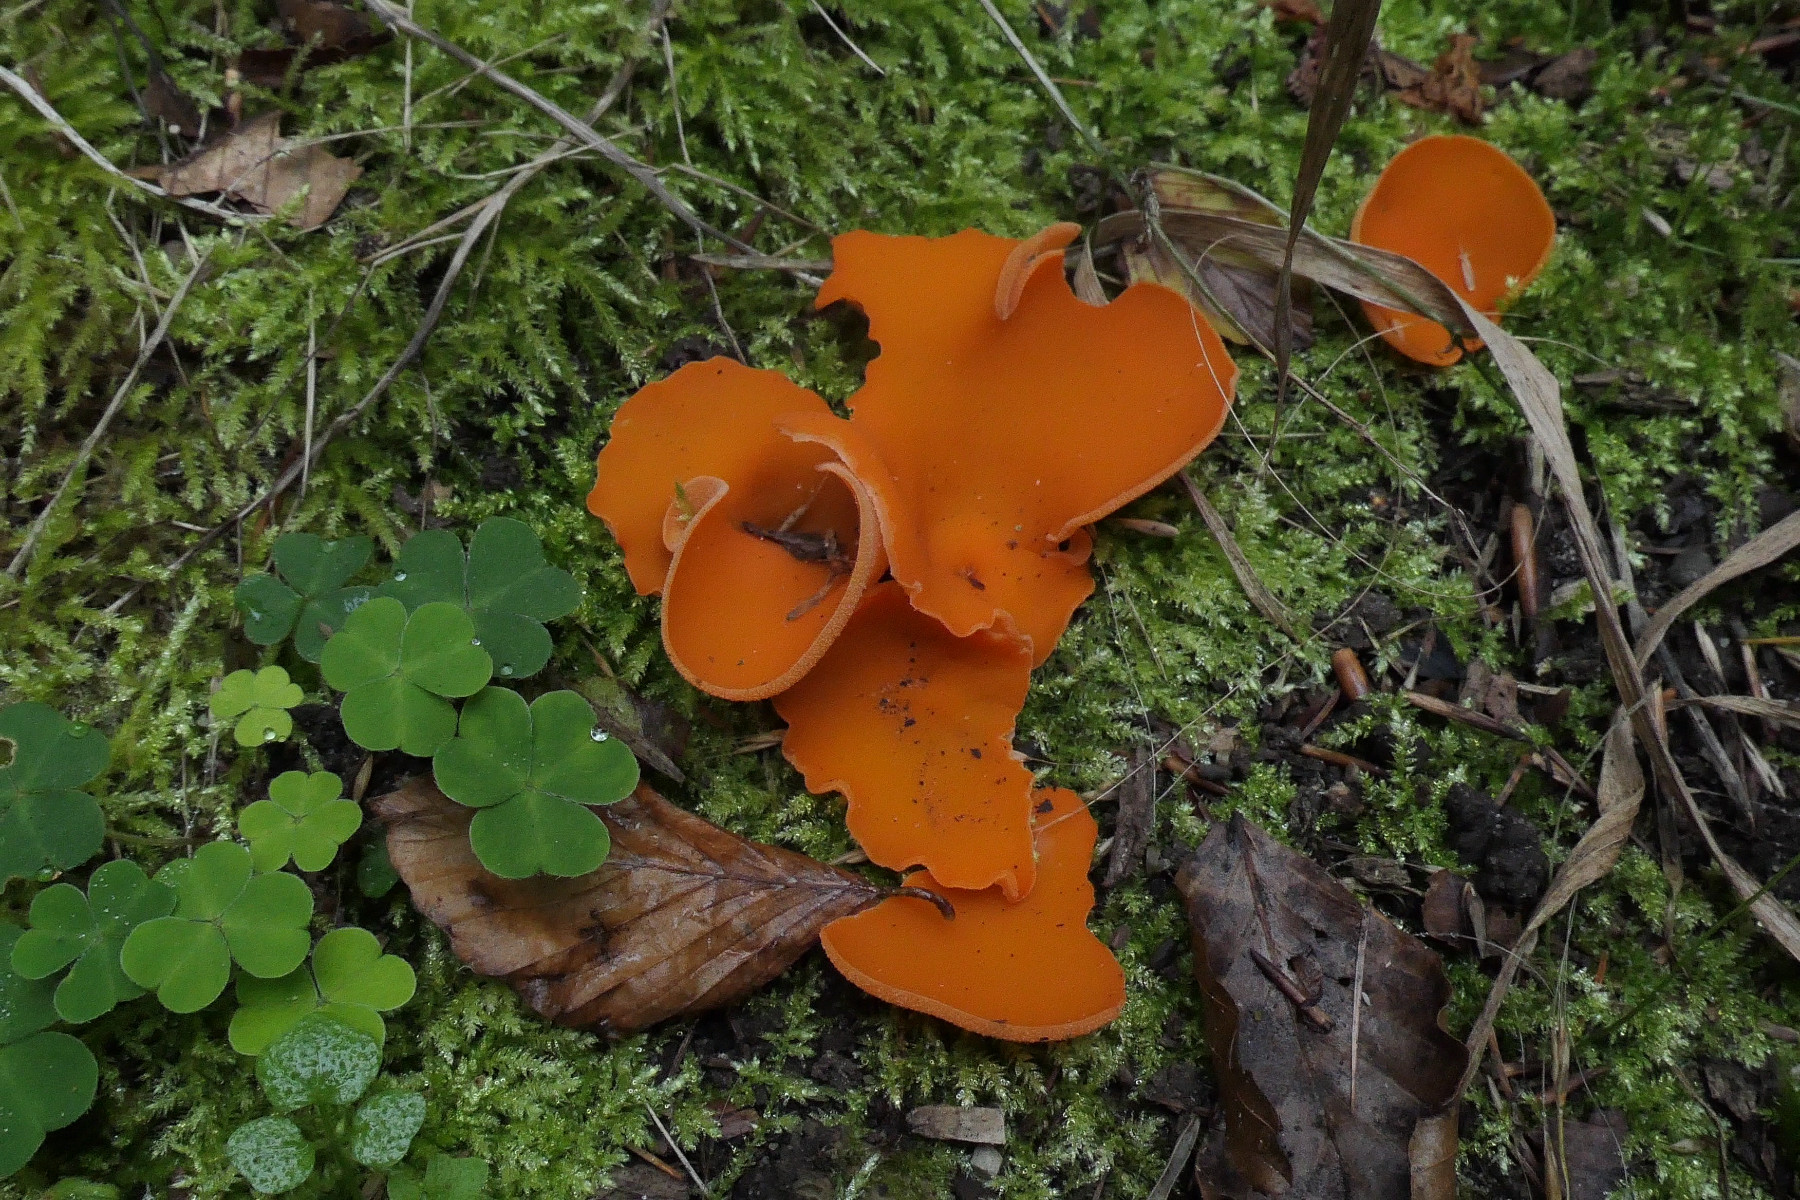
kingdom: Fungi
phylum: Ascomycota
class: Pezizomycetes
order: Pezizales
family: Pyronemataceae
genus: Aleuria
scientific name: Aleuria aurantia
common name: almindelig orangebæger
